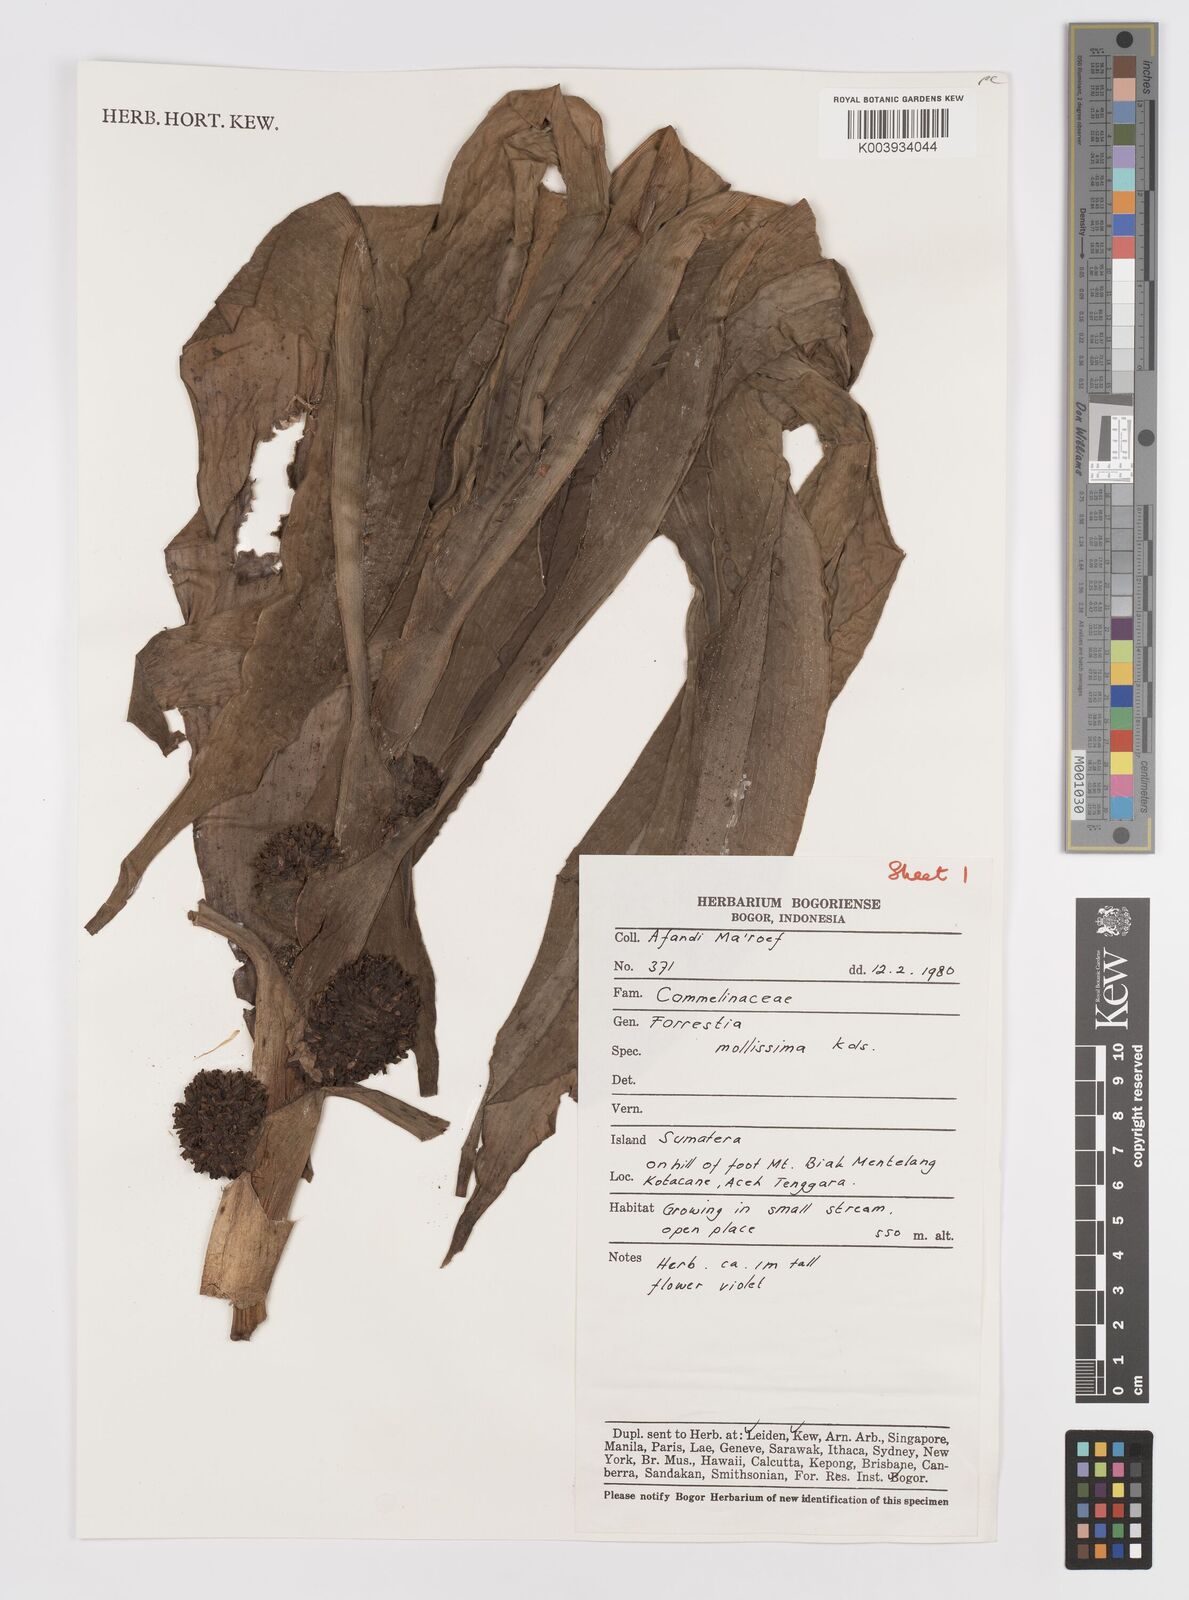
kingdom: Plantae
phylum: Tracheophyta
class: Liliopsida
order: Commelinales
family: Commelinaceae
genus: Amischotolype
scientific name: Amischotolype mollissima
